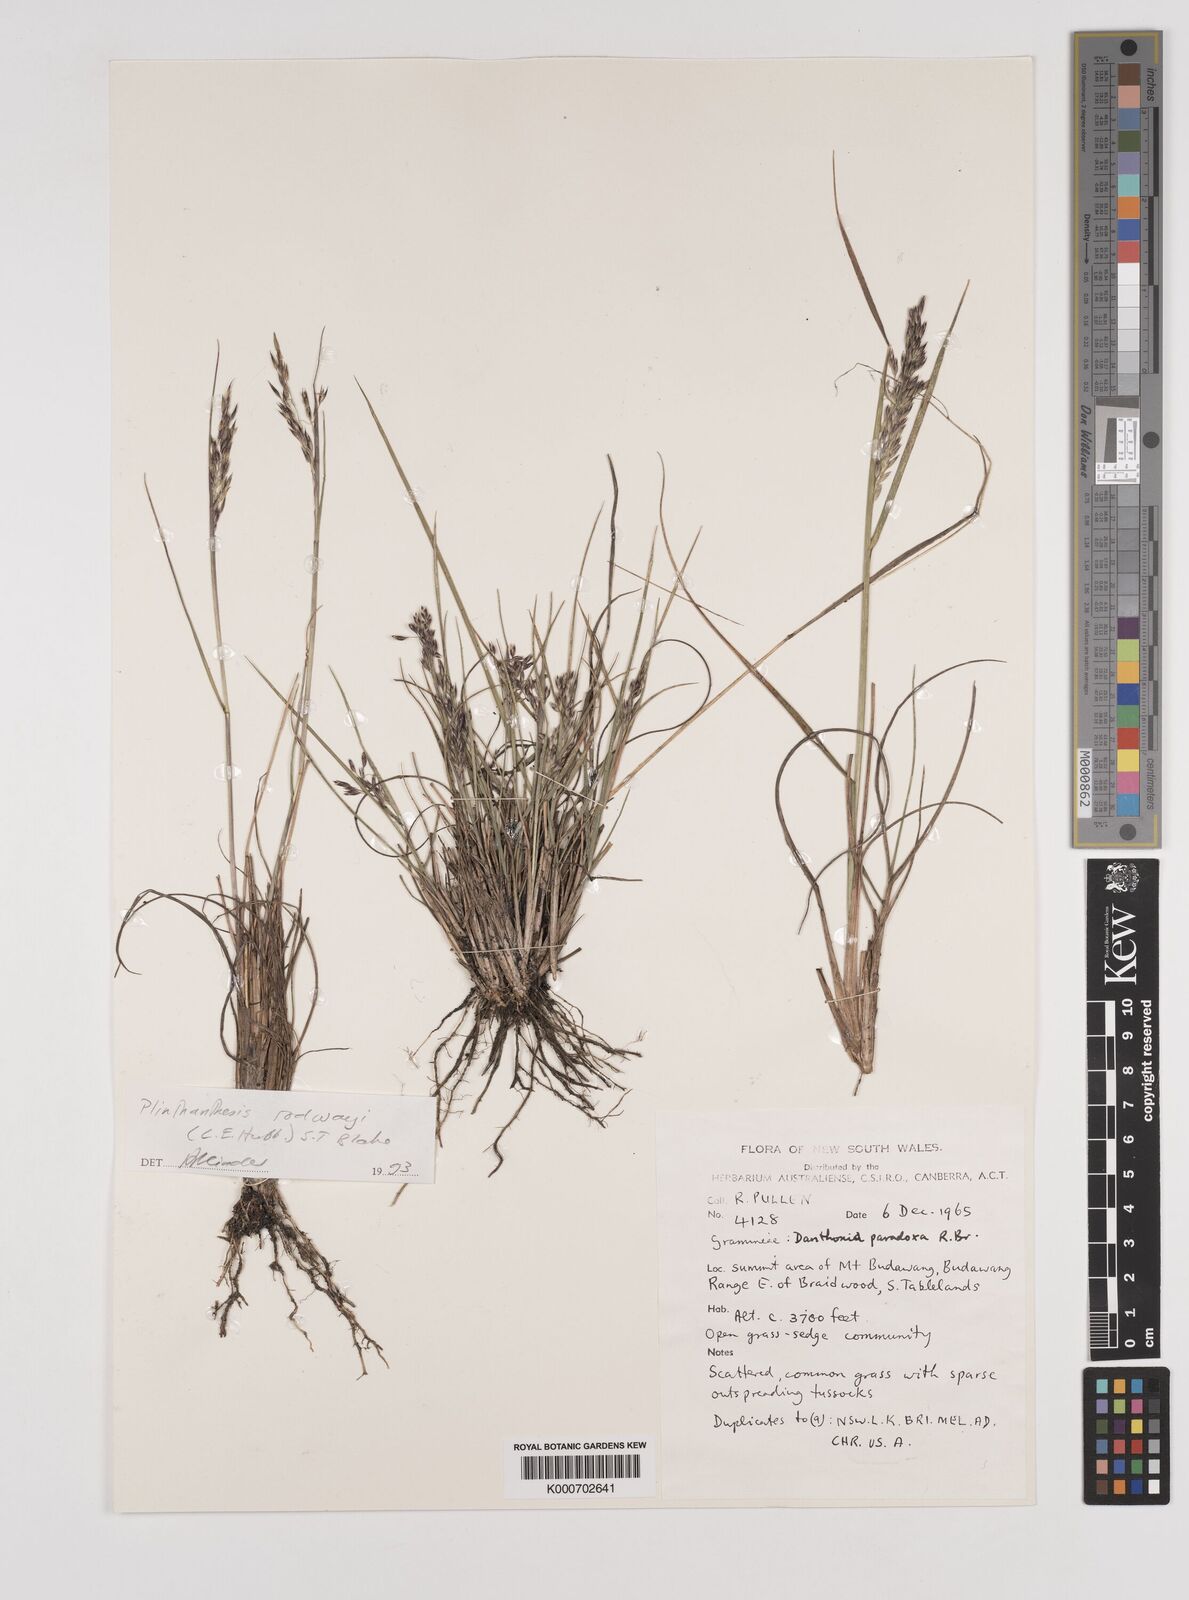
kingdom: Plantae
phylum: Tracheophyta
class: Liliopsida
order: Poales
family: Poaceae
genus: Plinthanthesis
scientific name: Plinthanthesis rodwayi
